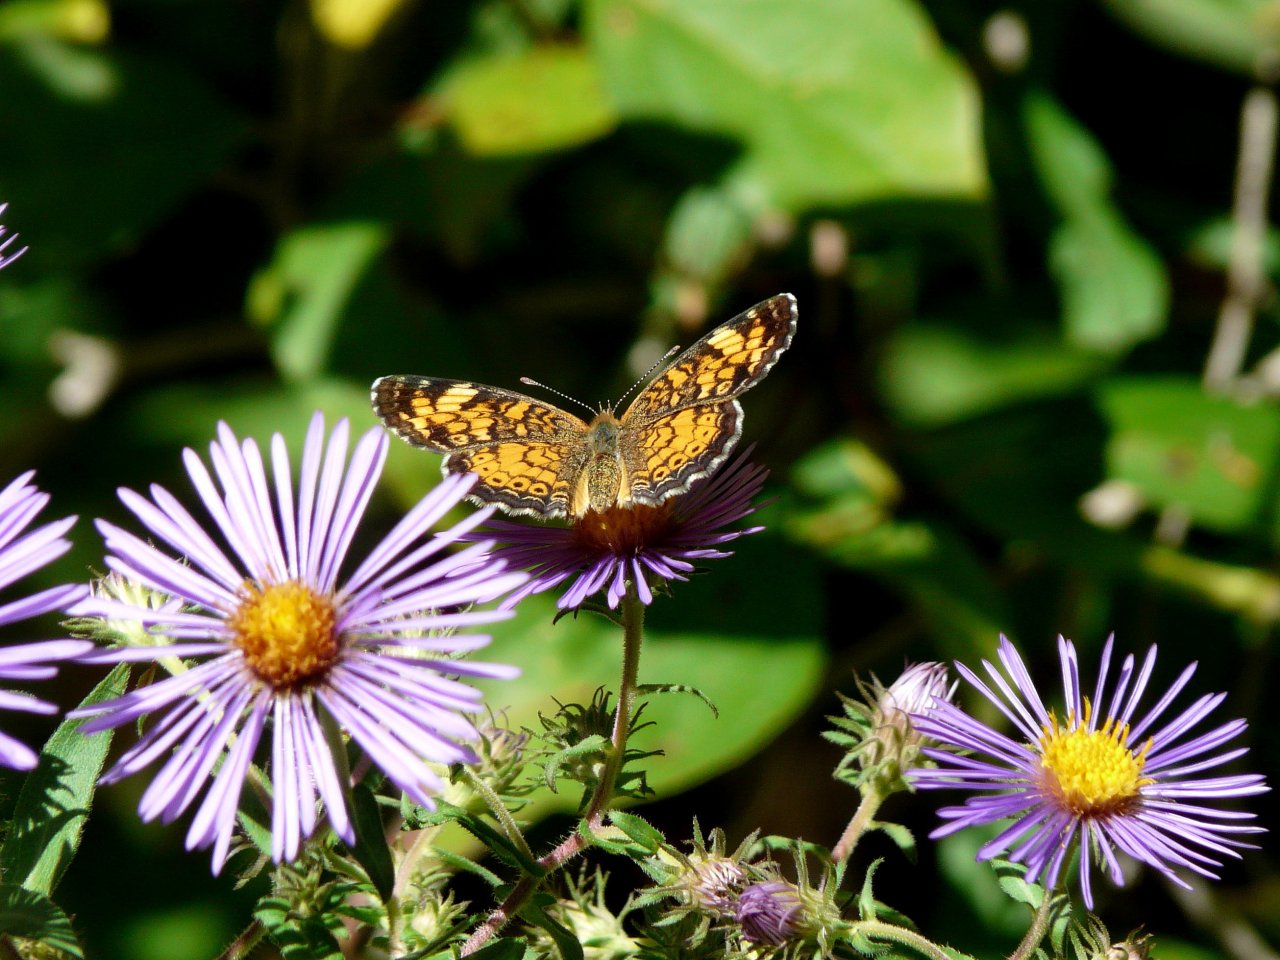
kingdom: Animalia
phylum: Arthropoda
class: Insecta
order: Lepidoptera
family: Nymphalidae
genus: Phyciodes
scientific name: Phyciodes tharos
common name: Pearl Crescent
